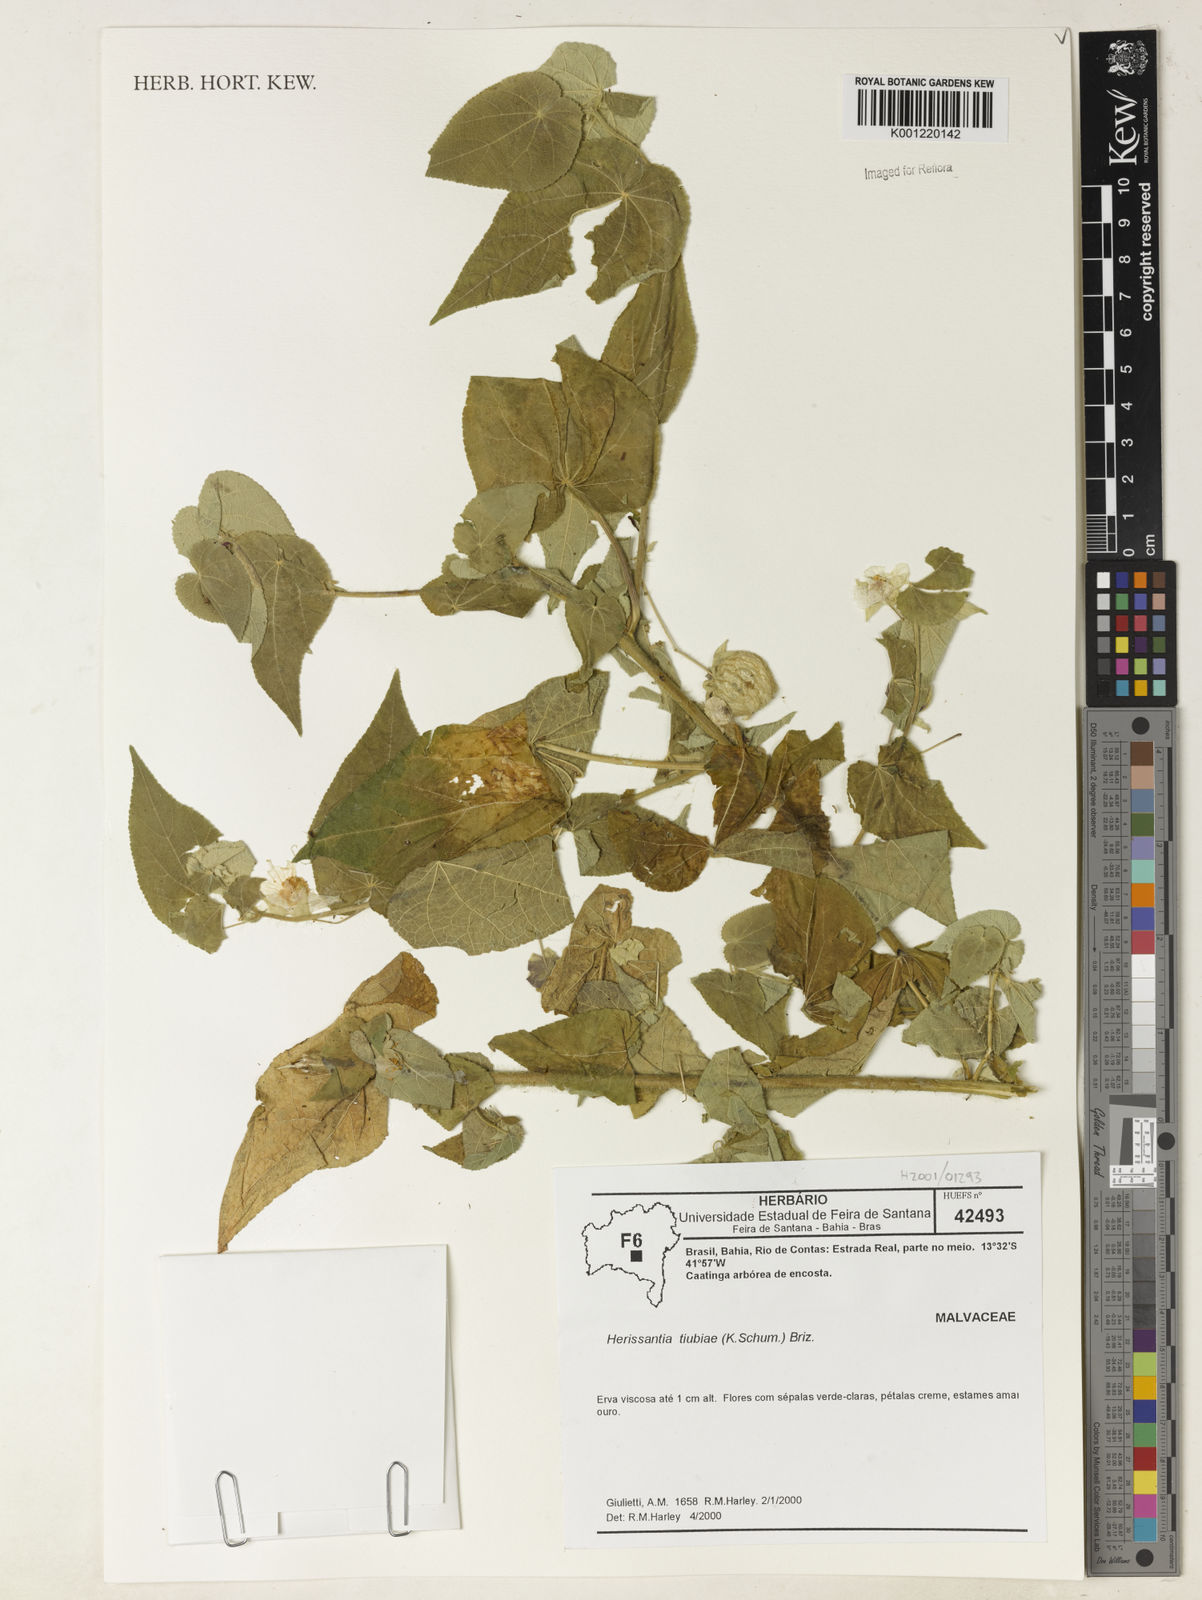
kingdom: Plantae
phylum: Tracheophyta
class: Magnoliopsida
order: Malvales
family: Malvaceae
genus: Herissantia
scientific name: Herissantia tiubae
